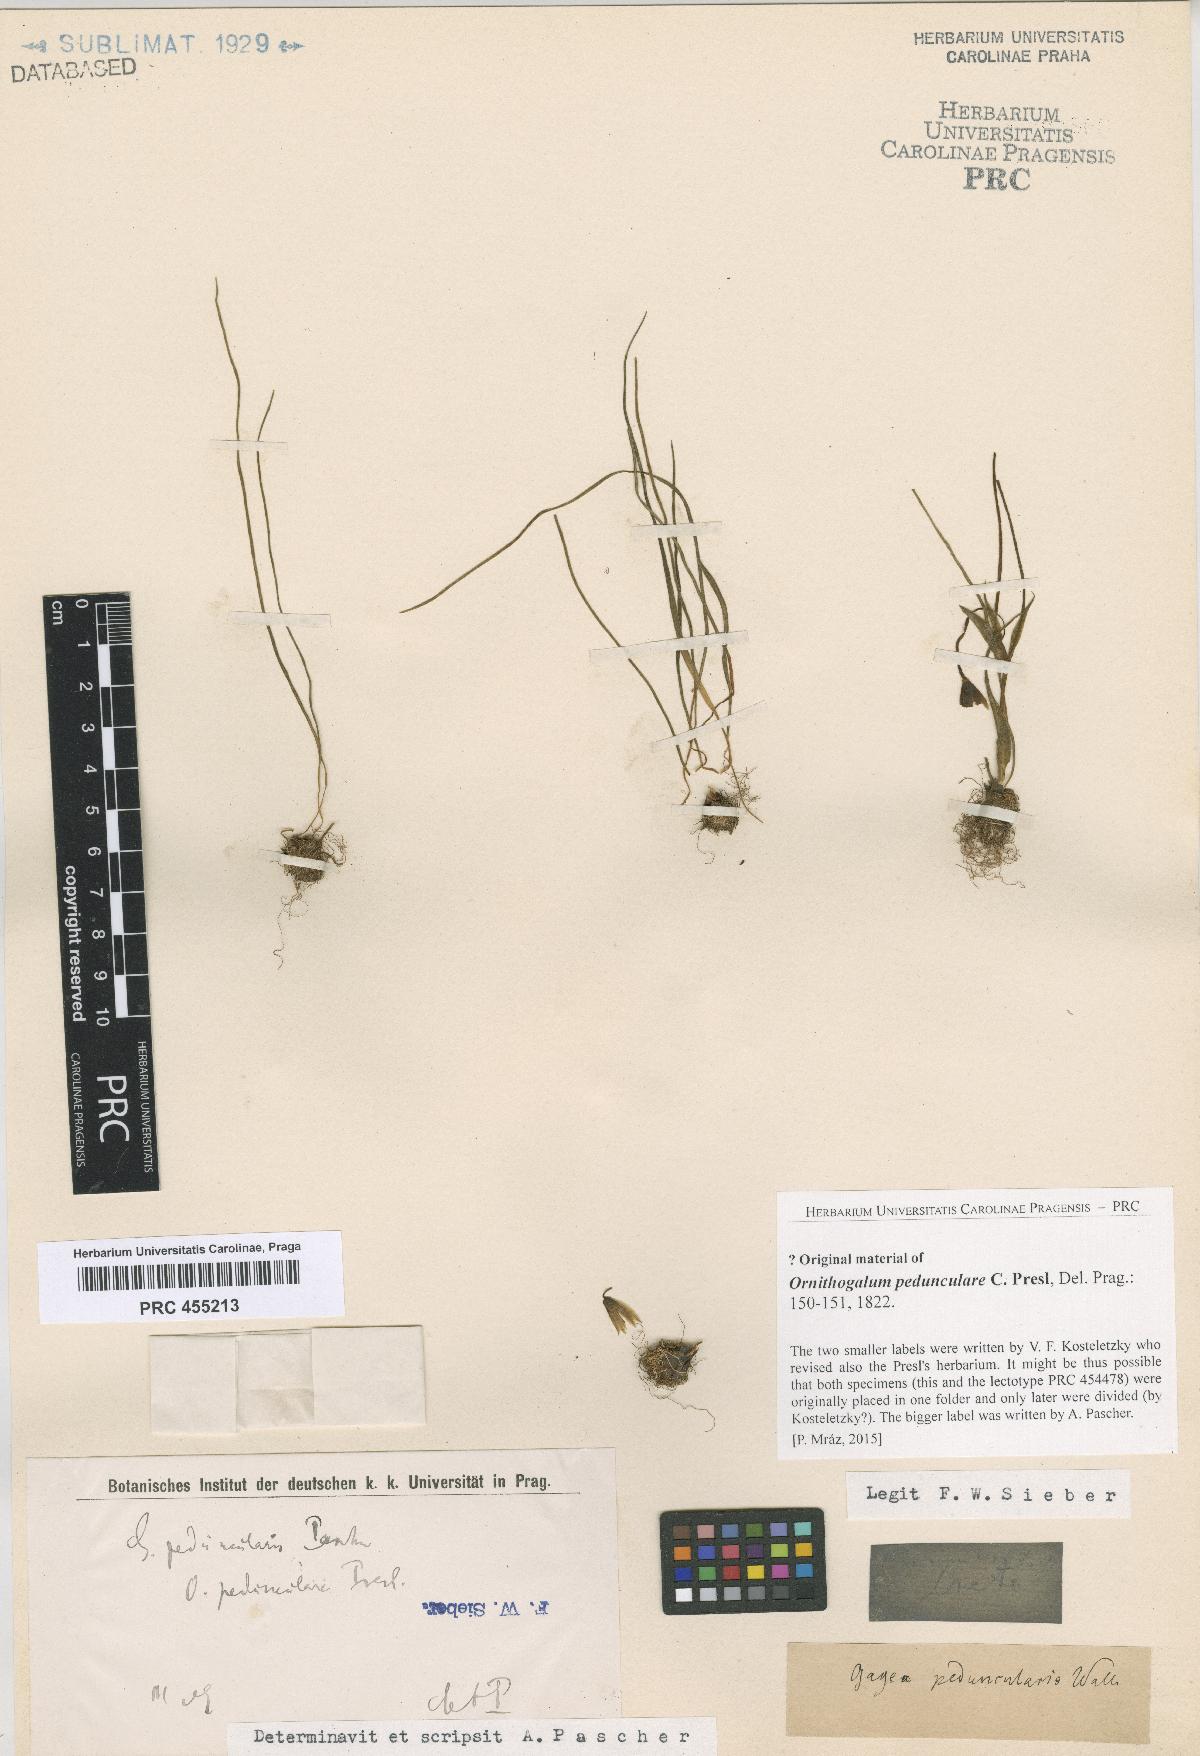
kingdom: Plantae
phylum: Tracheophyta
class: Liliopsida
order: Liliales
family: Liliaceae
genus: Gagea
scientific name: Gagea peduncularis
